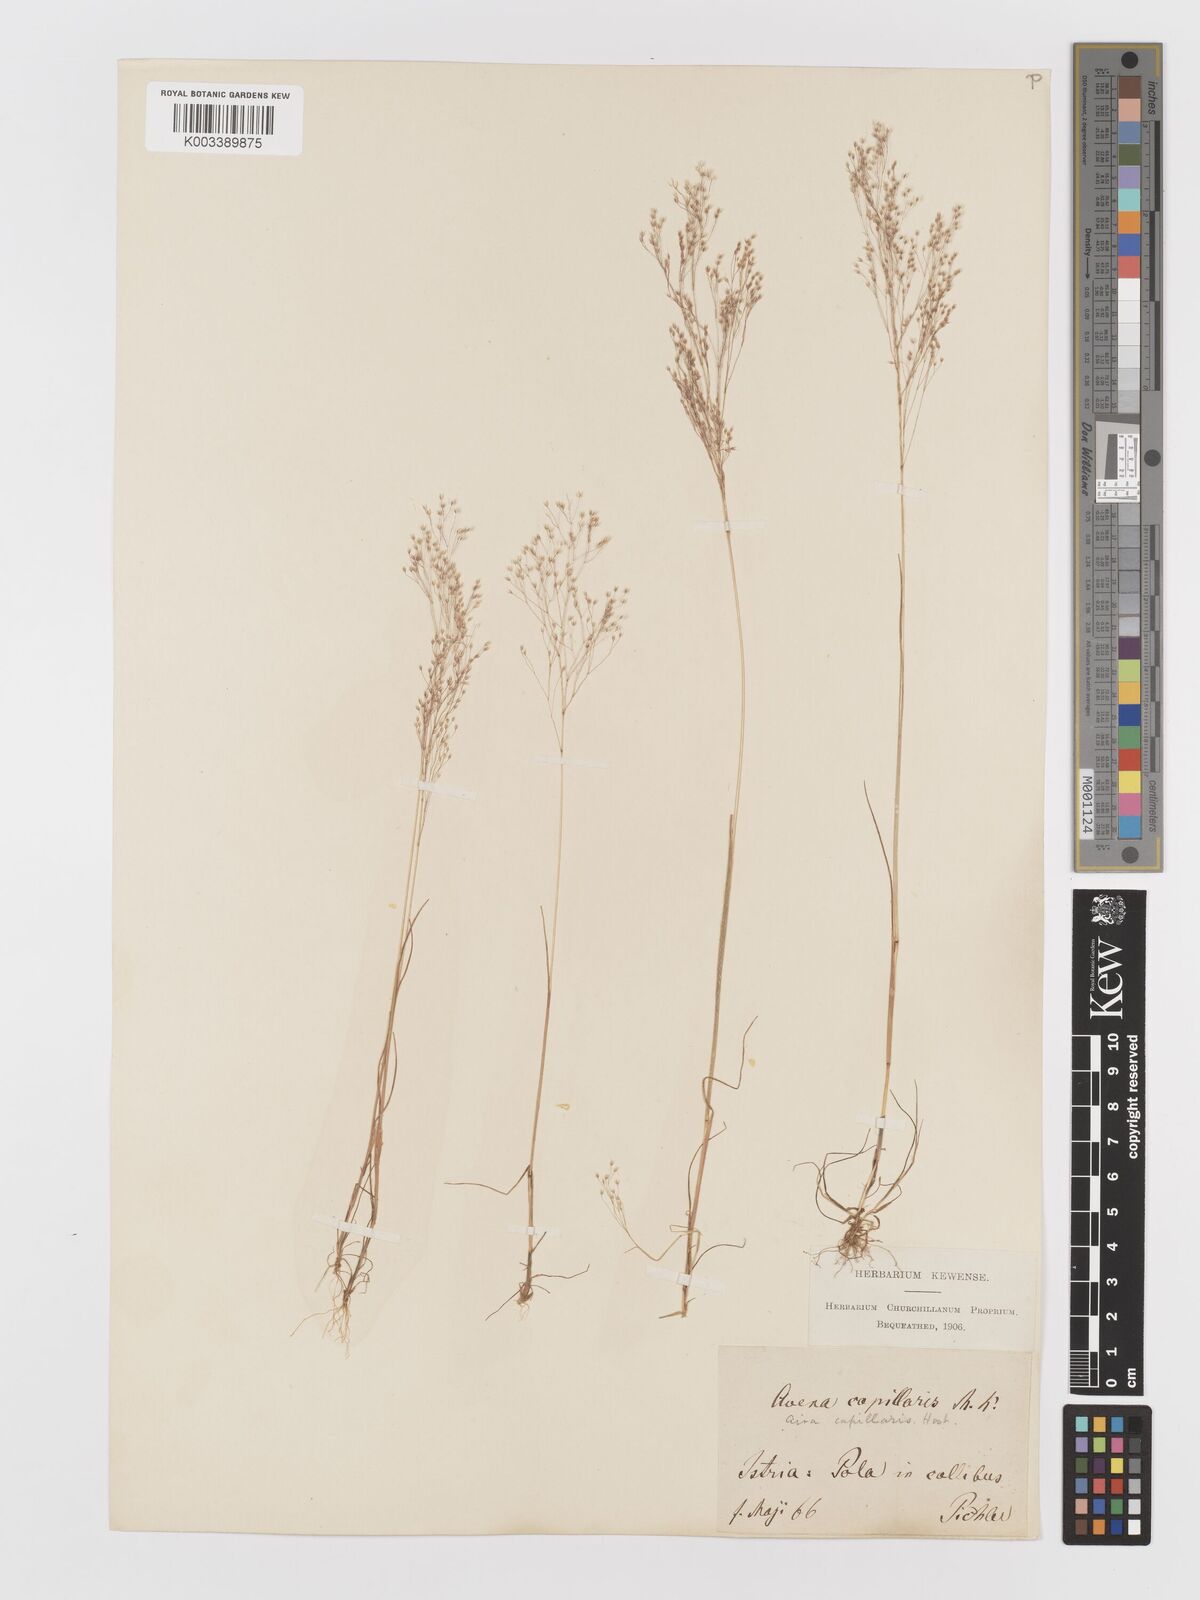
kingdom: Plantae
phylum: Tracheophyta
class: Liliopsida
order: Poales
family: Poaceae
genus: Aira
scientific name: Aira elegans
